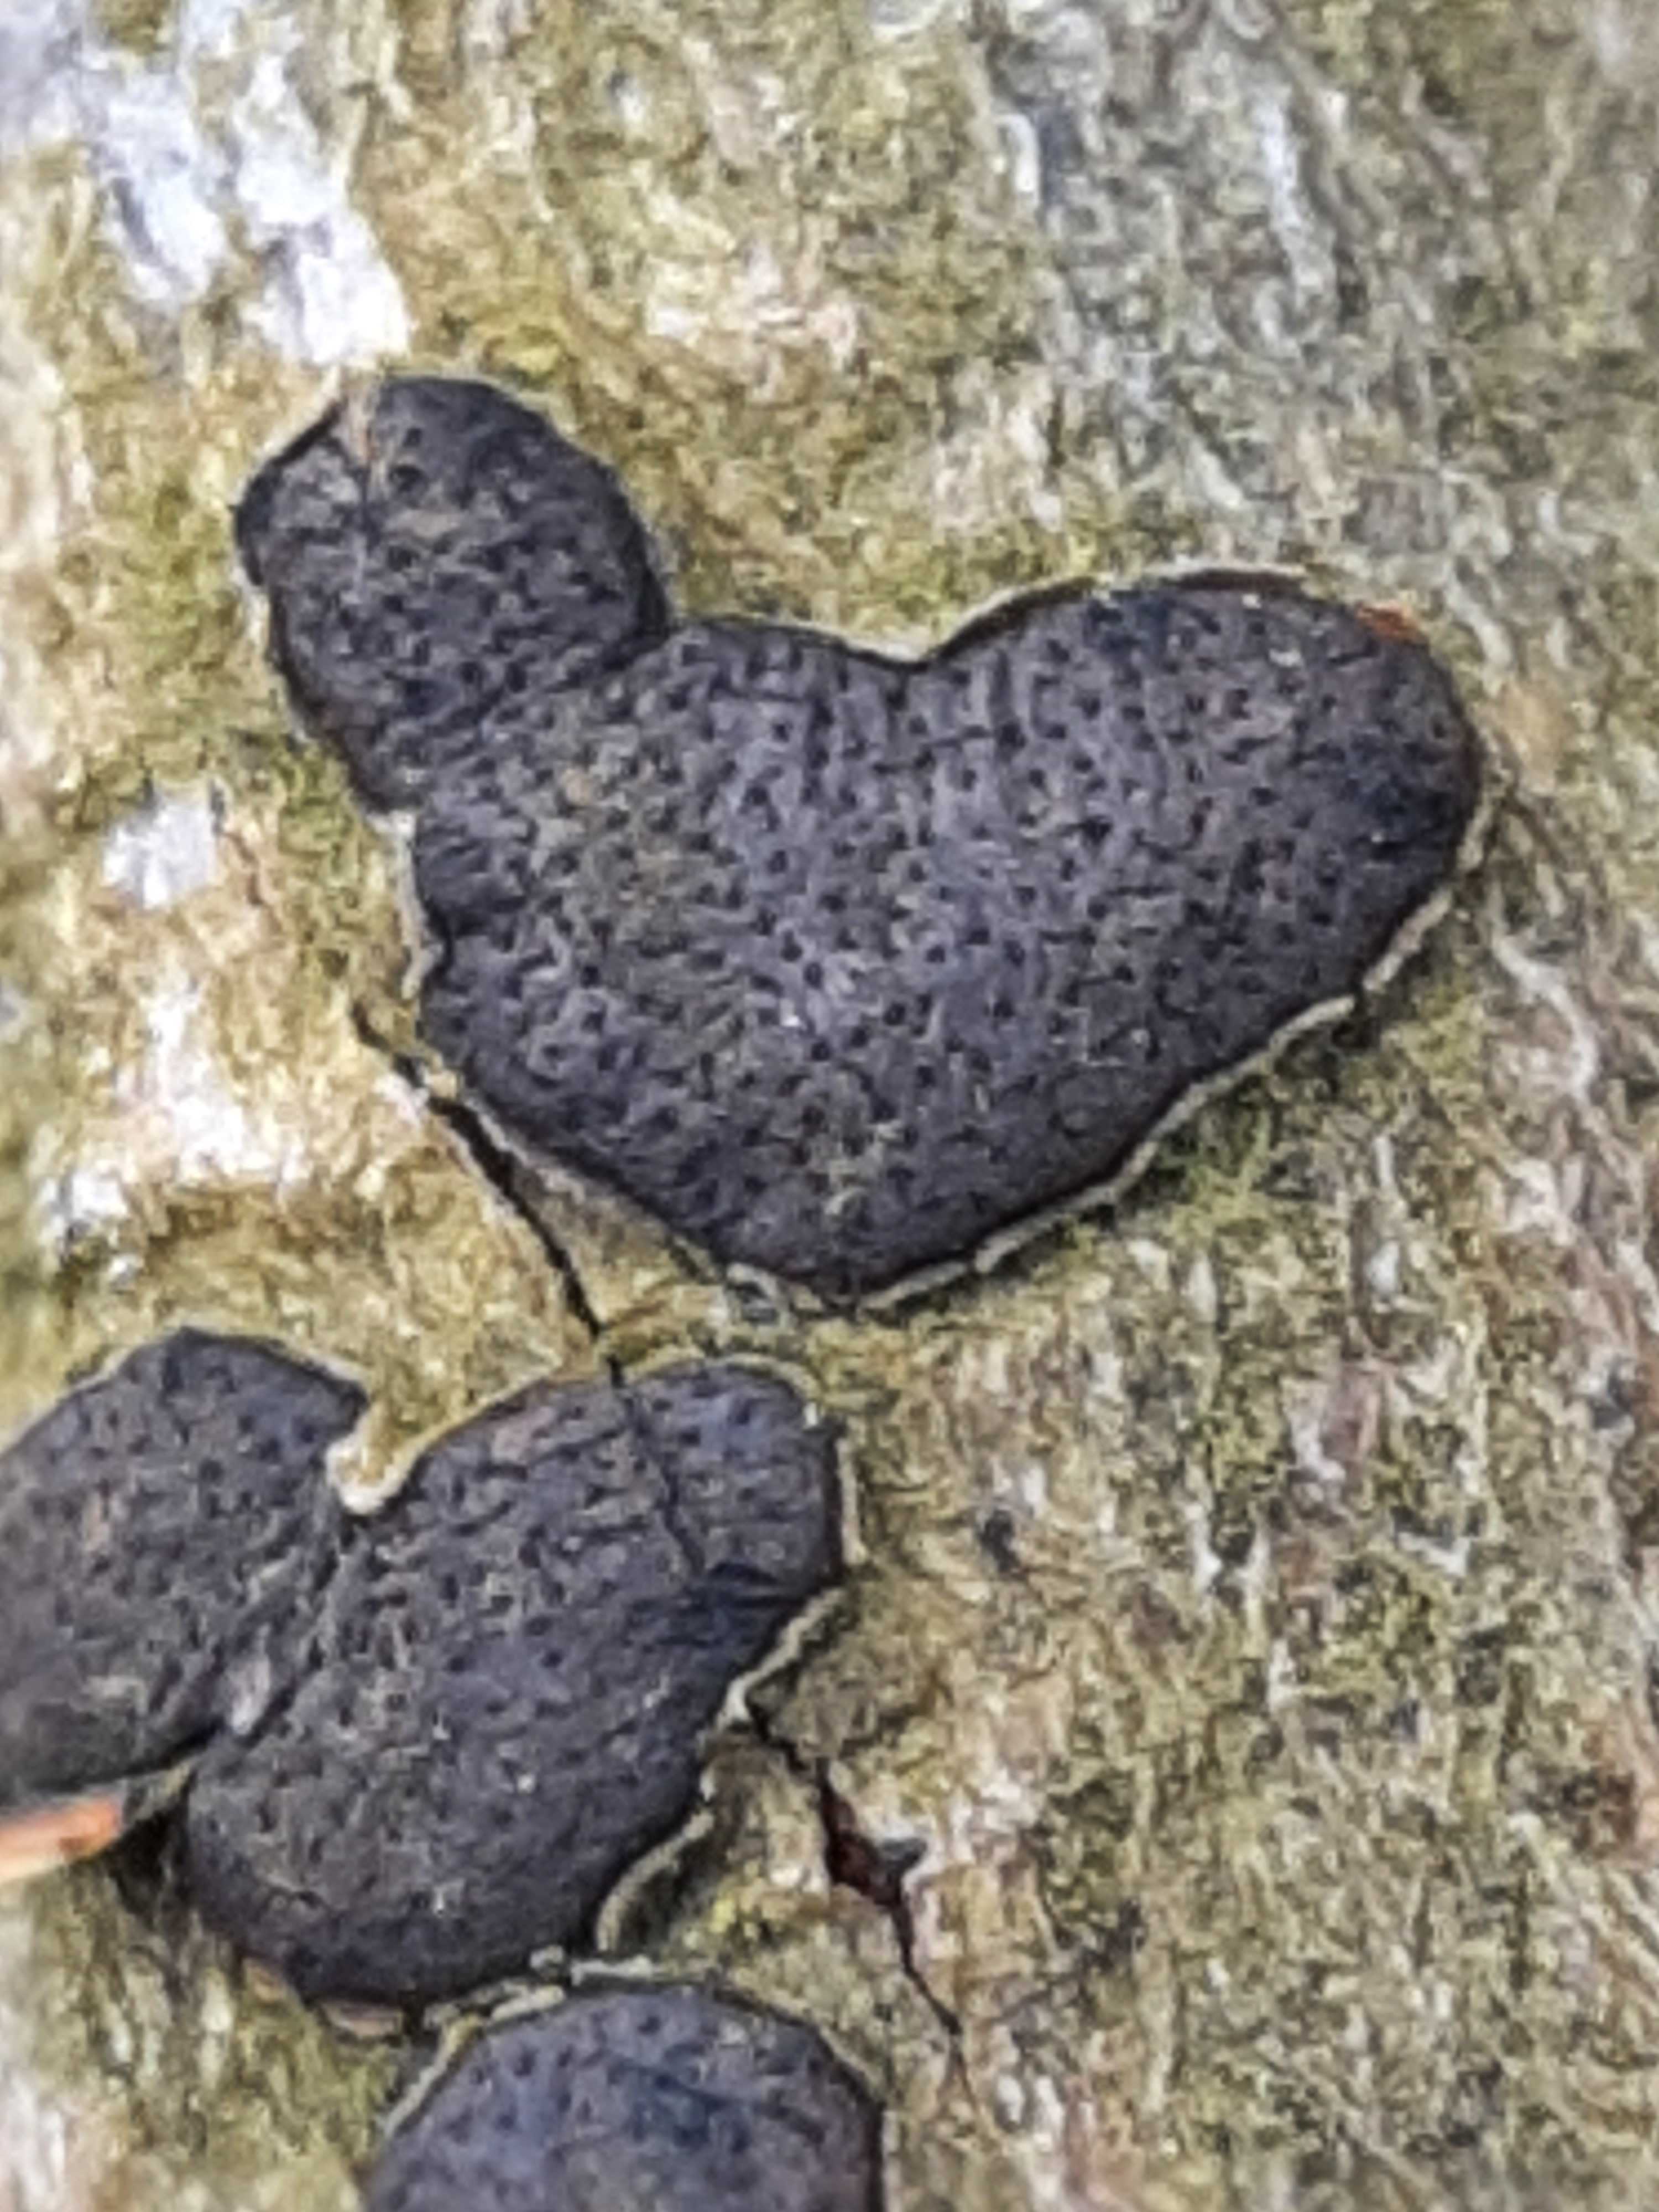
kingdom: Fungi
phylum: Ascomycota
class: Sordariomycetes
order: Xylariales
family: Diatrypaceae
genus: Diatrype
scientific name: Diatrype bullata
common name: pile-kulskorpe
